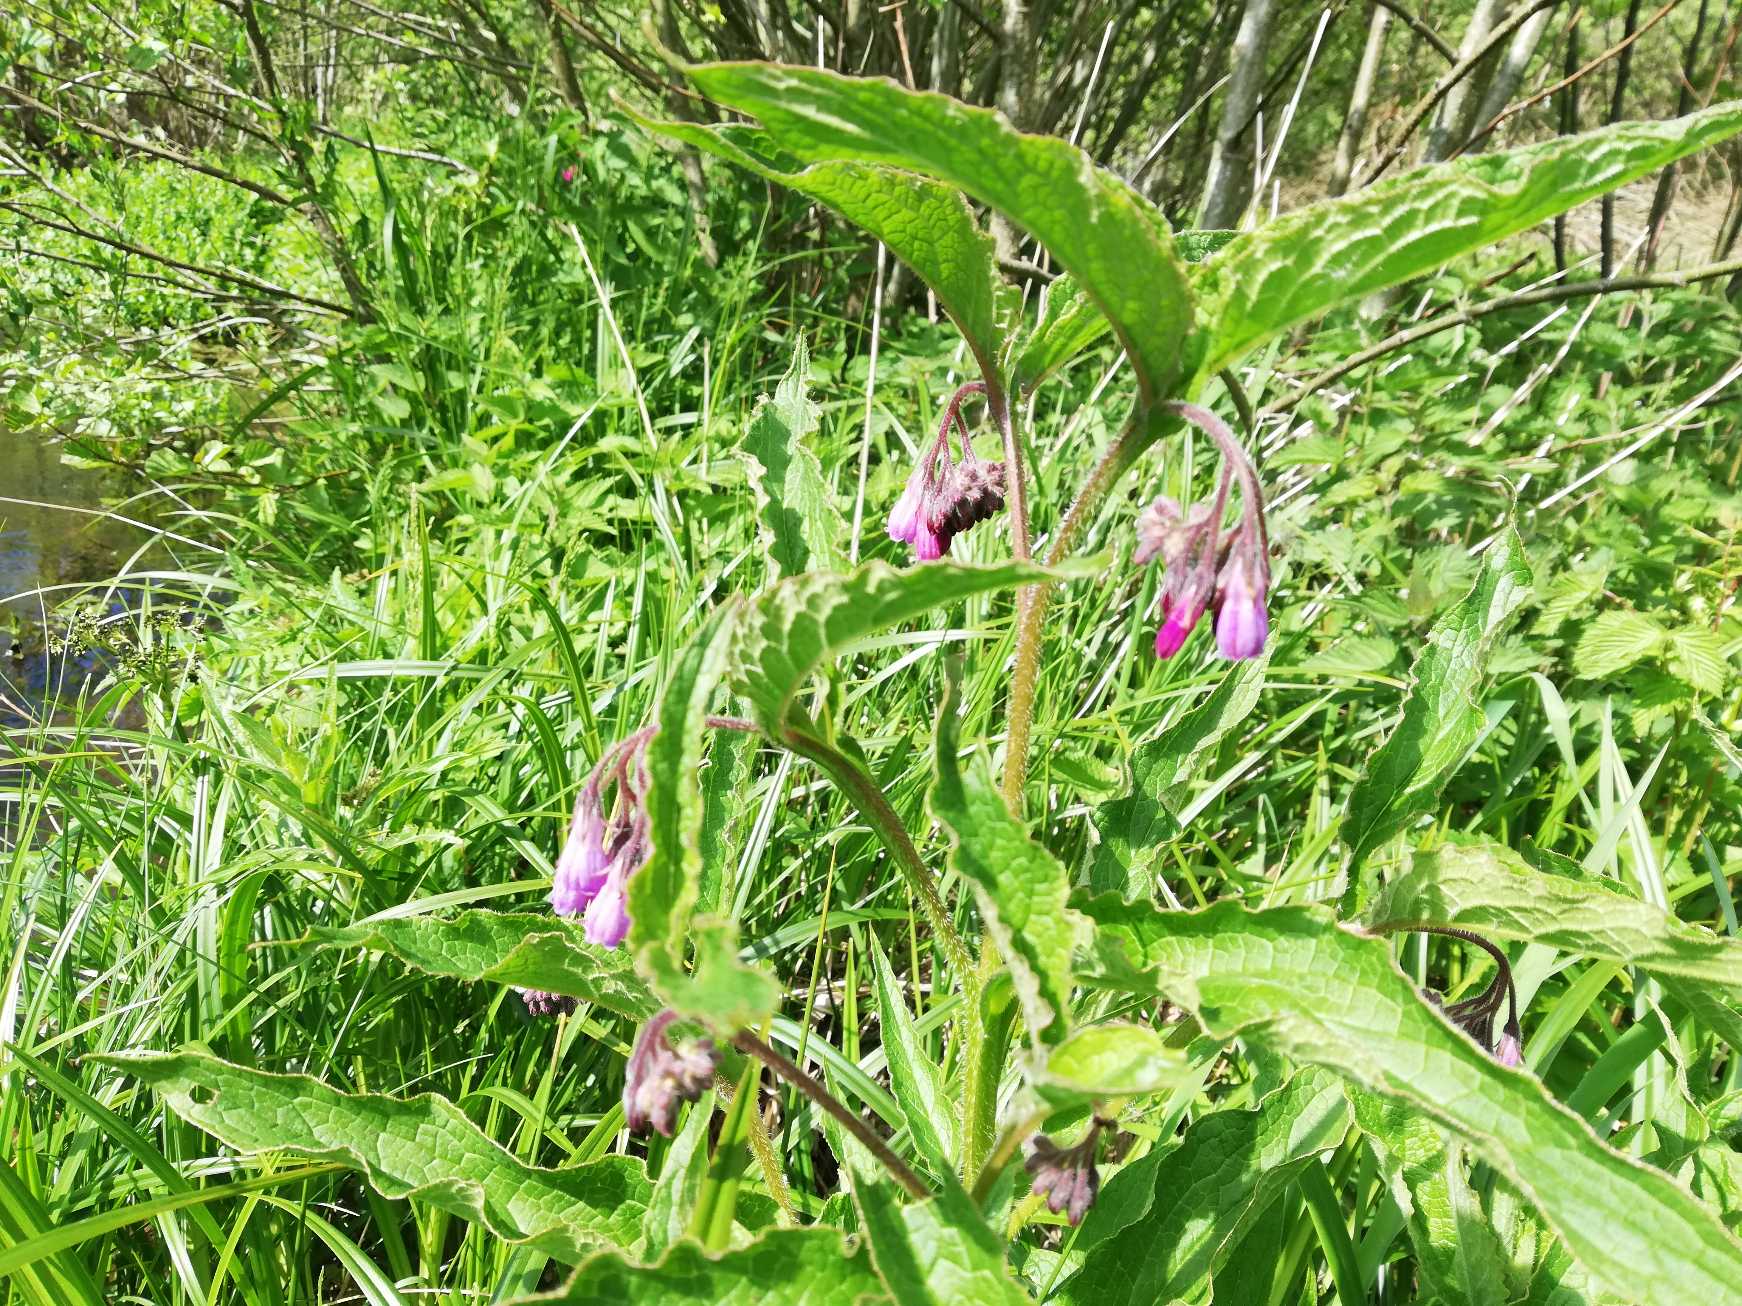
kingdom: Plantae
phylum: Tracheophyta
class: Magnoliopsida
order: Boraginales
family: Boraginaceae
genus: Symphytum
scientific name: Symphytum uplandicum
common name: Foder-kulsukker
